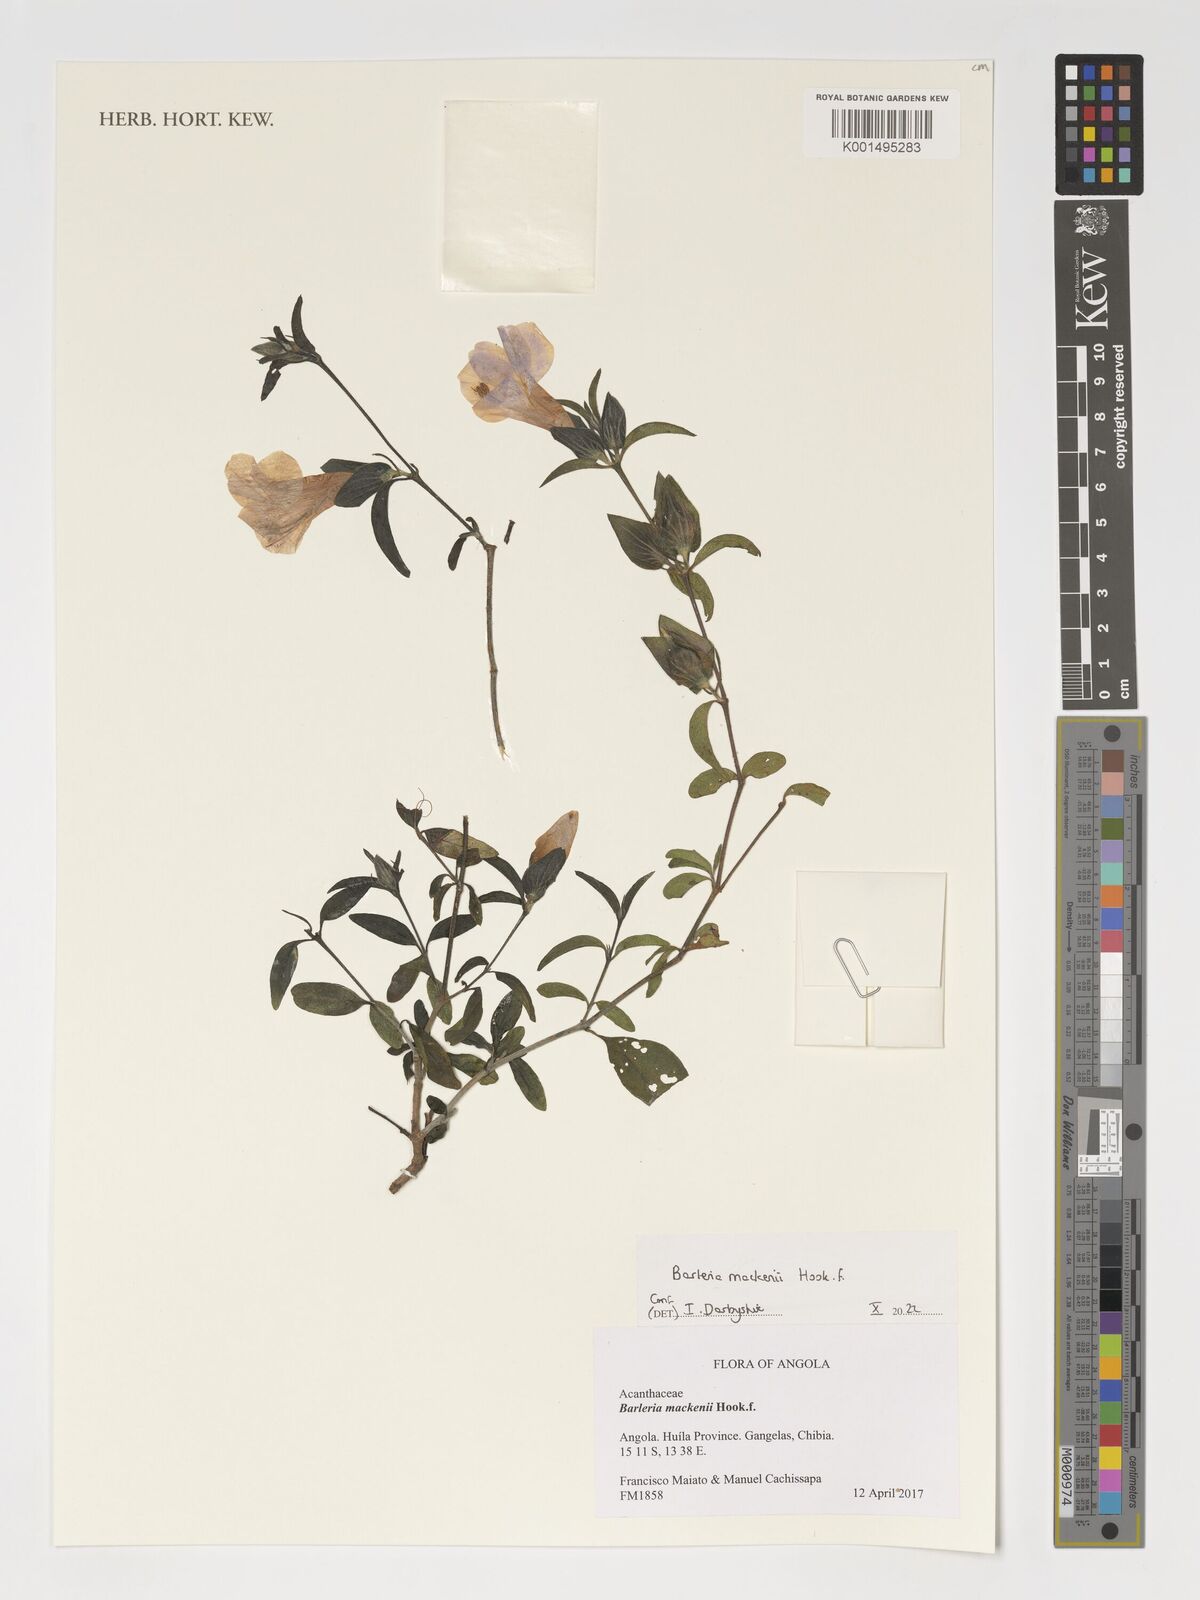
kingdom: Plantae
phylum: Tracheophyta
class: Magnoliopsida
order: Lamiales
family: Acanthaceae
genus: Barleria
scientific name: Barleria mackenii
